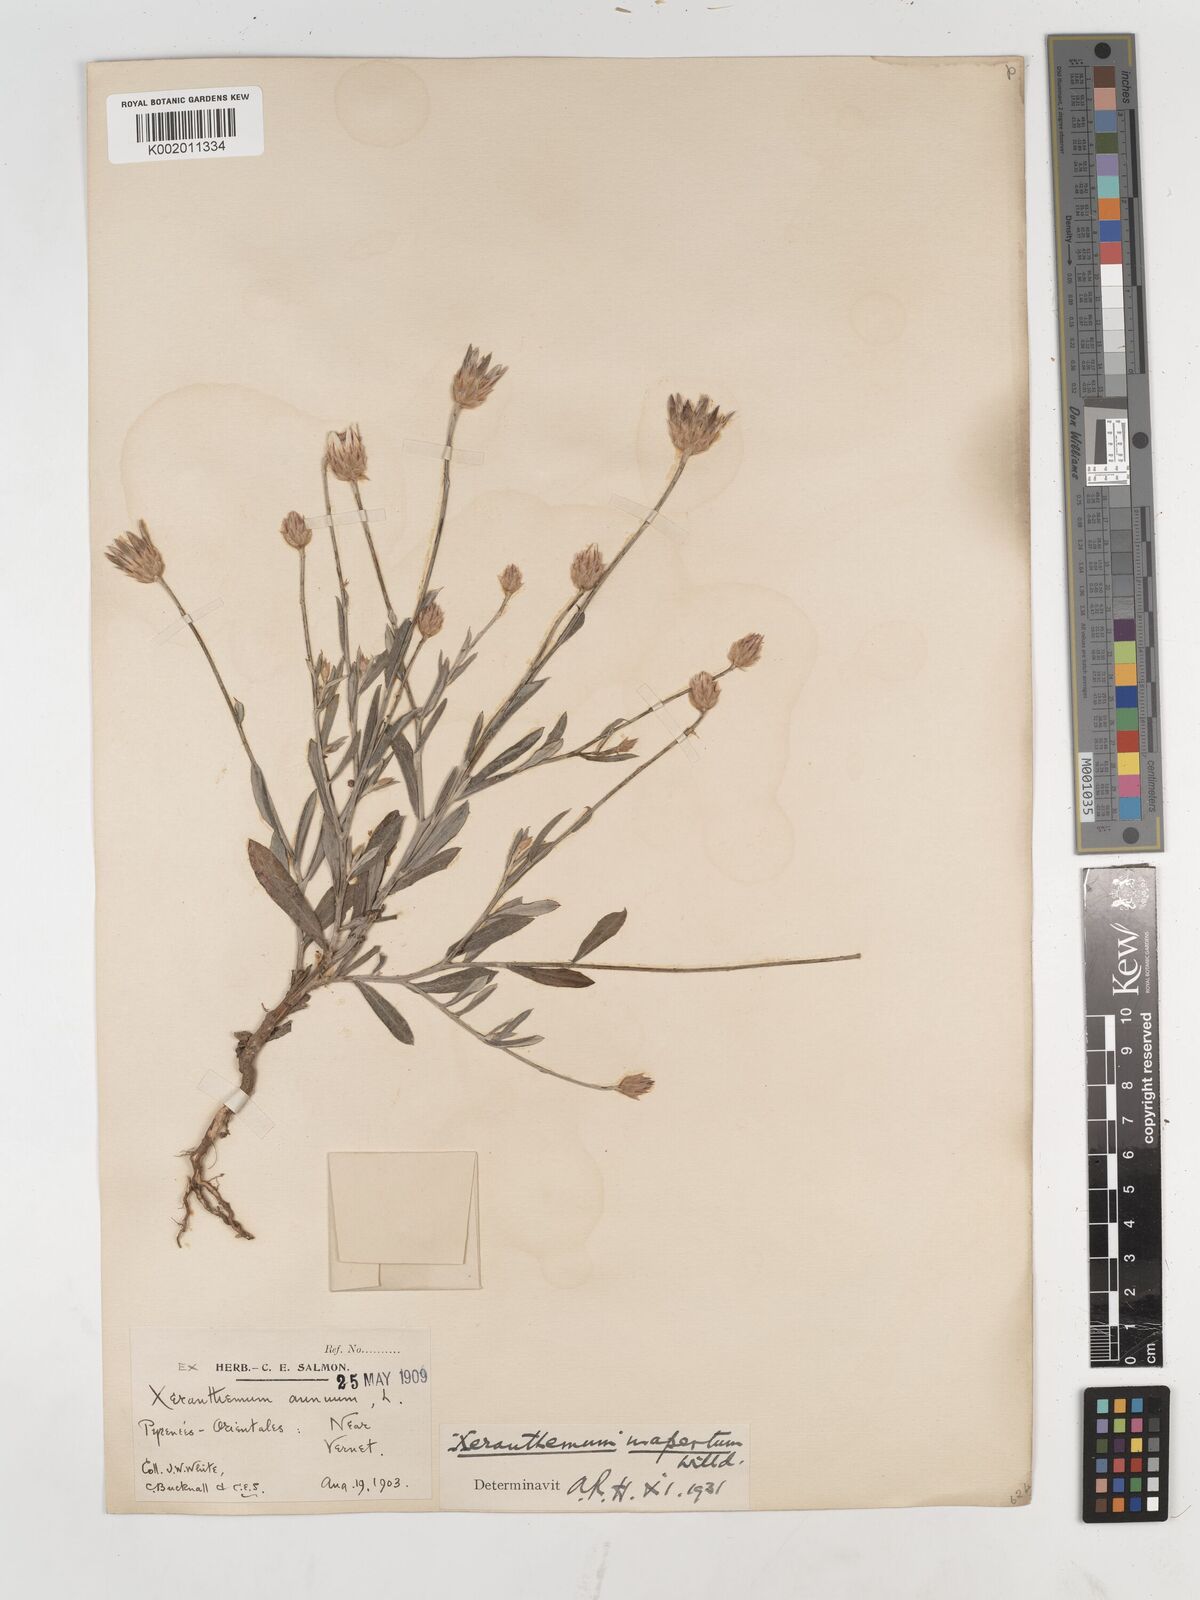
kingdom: Plantae
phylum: Tracheophyta
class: Magnoliopsida
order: Asterales
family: Asteraceae
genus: Xeranthemum
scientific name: Xeranthemum inapertum
